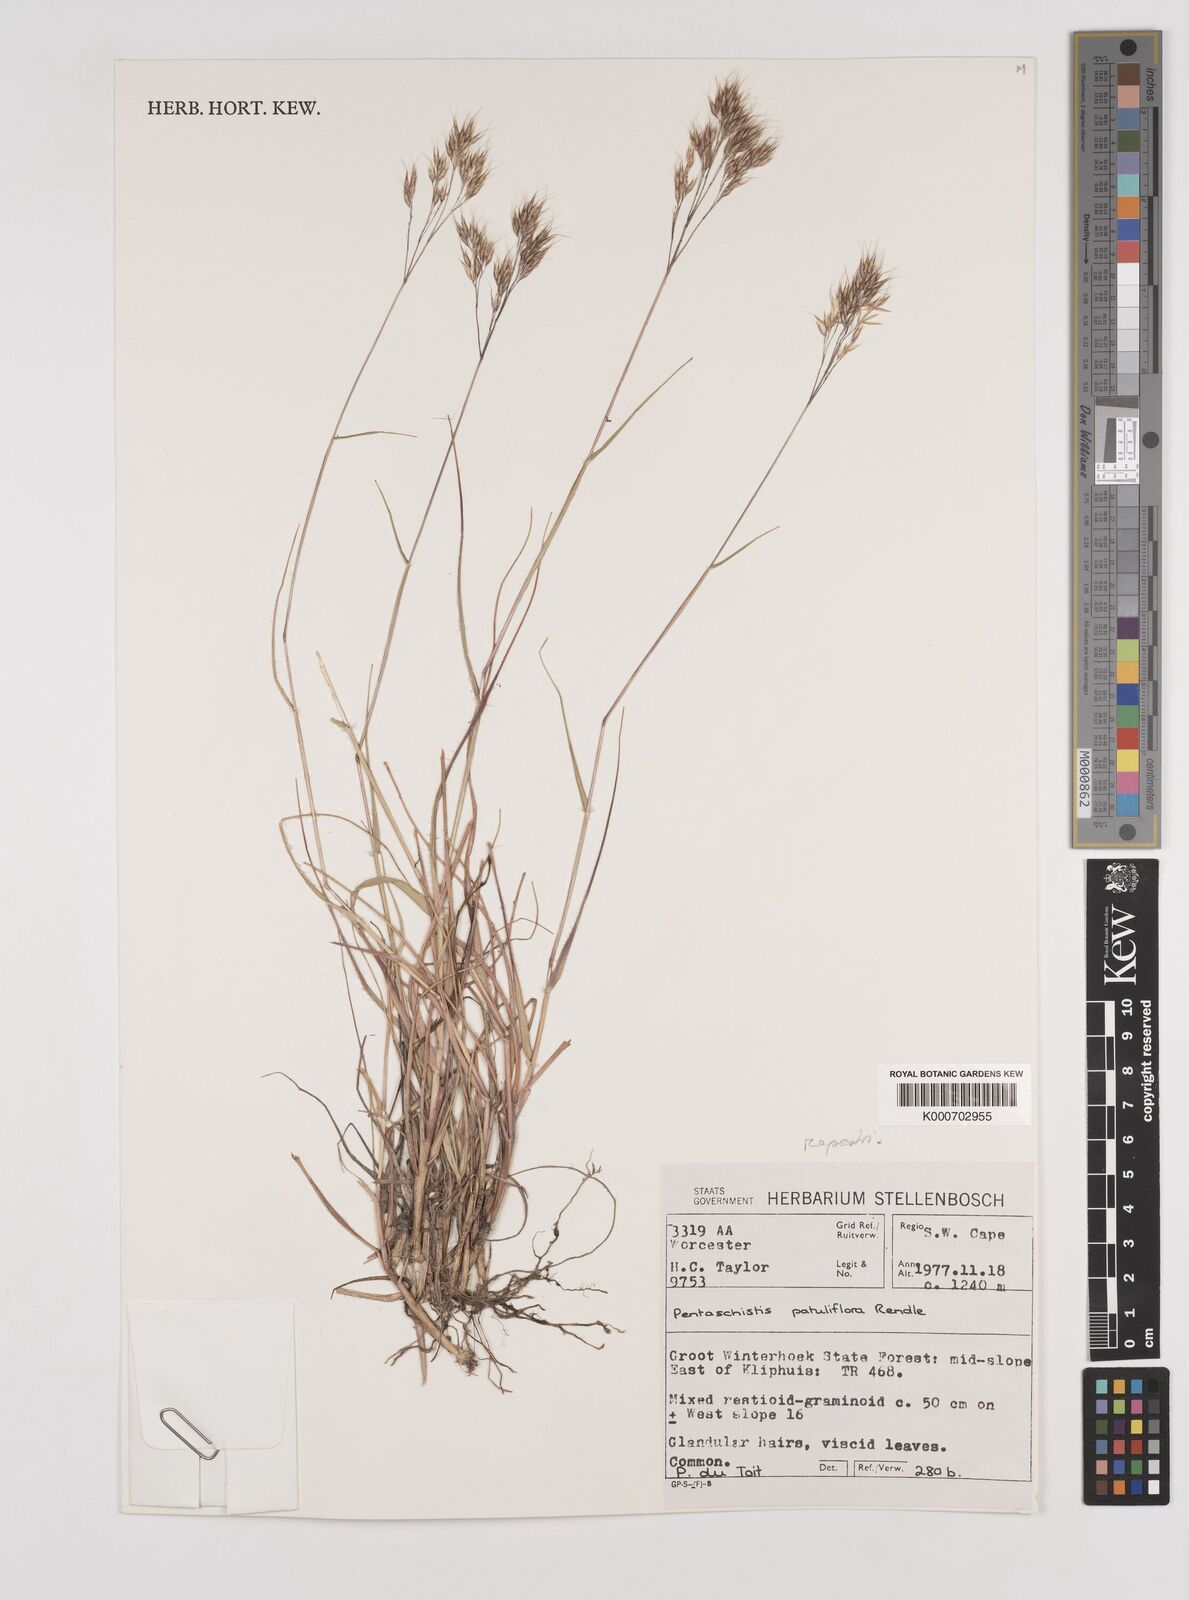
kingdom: Plantae
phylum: Tracheophyta
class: Liliopsida
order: Poales
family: Poaceae
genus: Pentameris
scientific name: Pentameris rupestris
